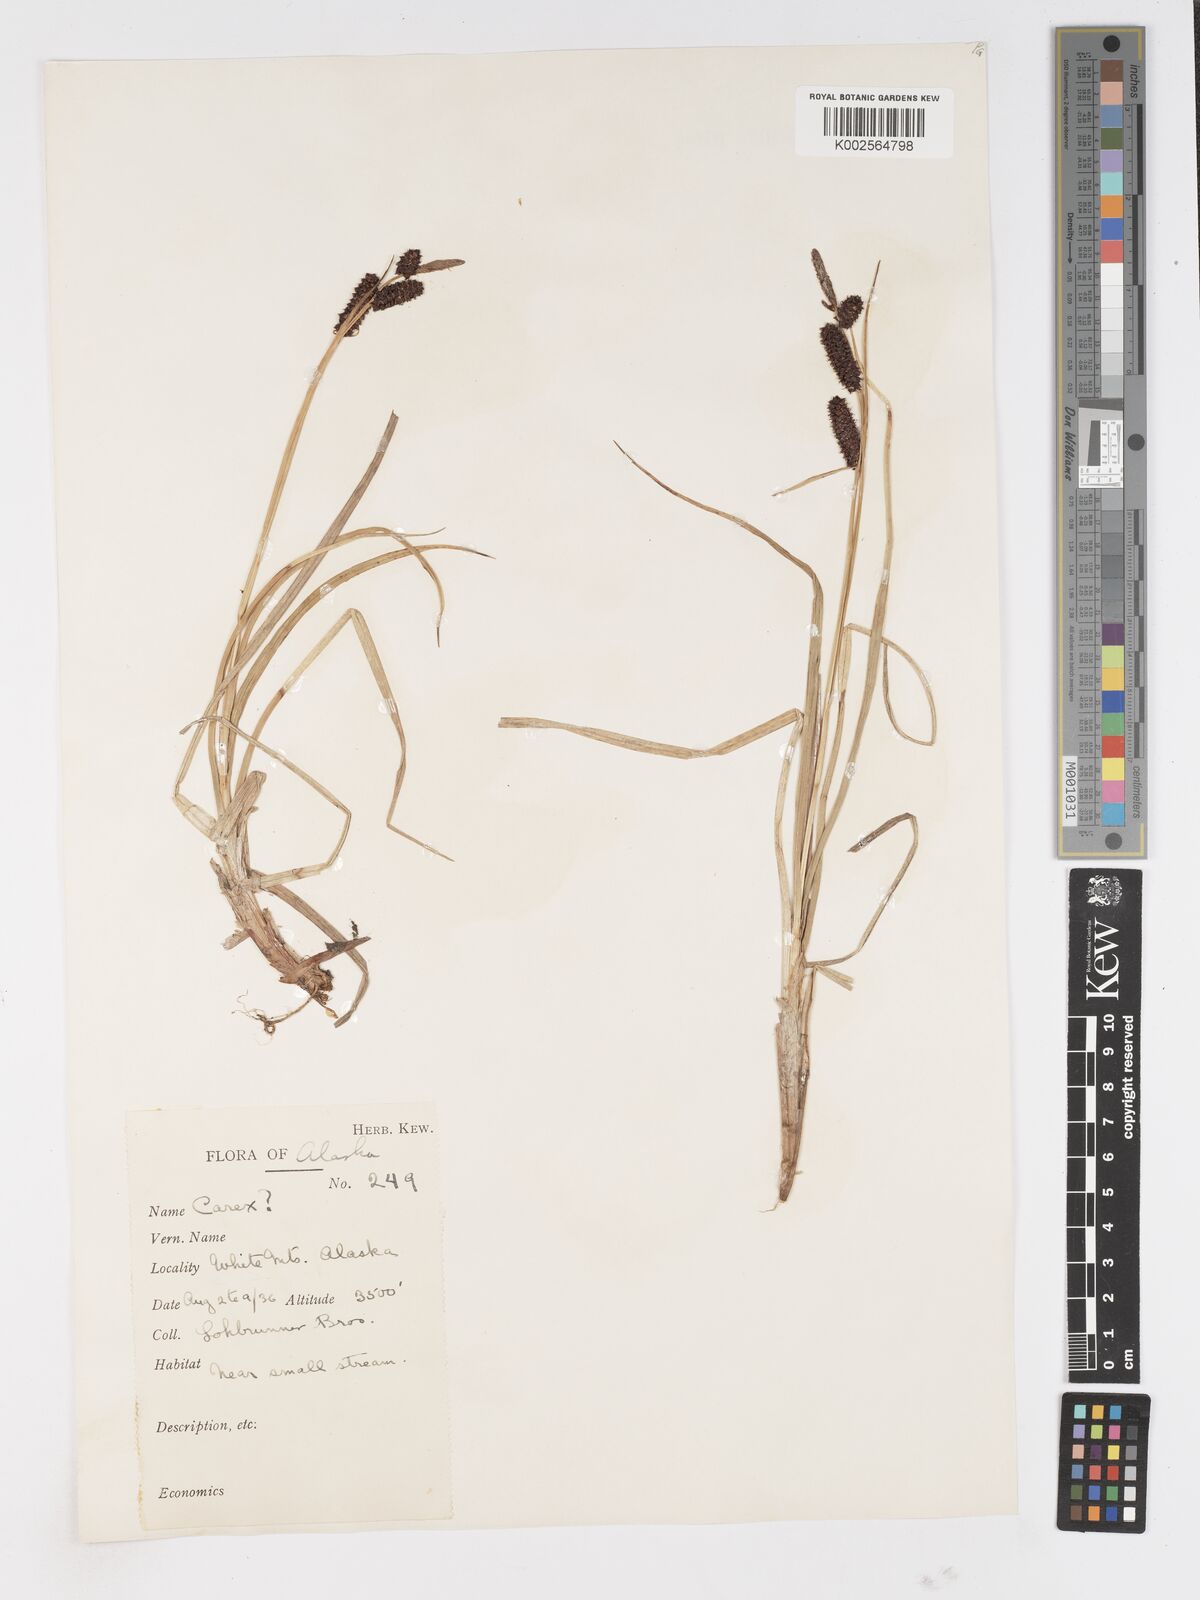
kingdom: Plantae
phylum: Tracheophyta
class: Liliopsida
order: Poales
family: Cyperaceae
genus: Carex
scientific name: Carex
